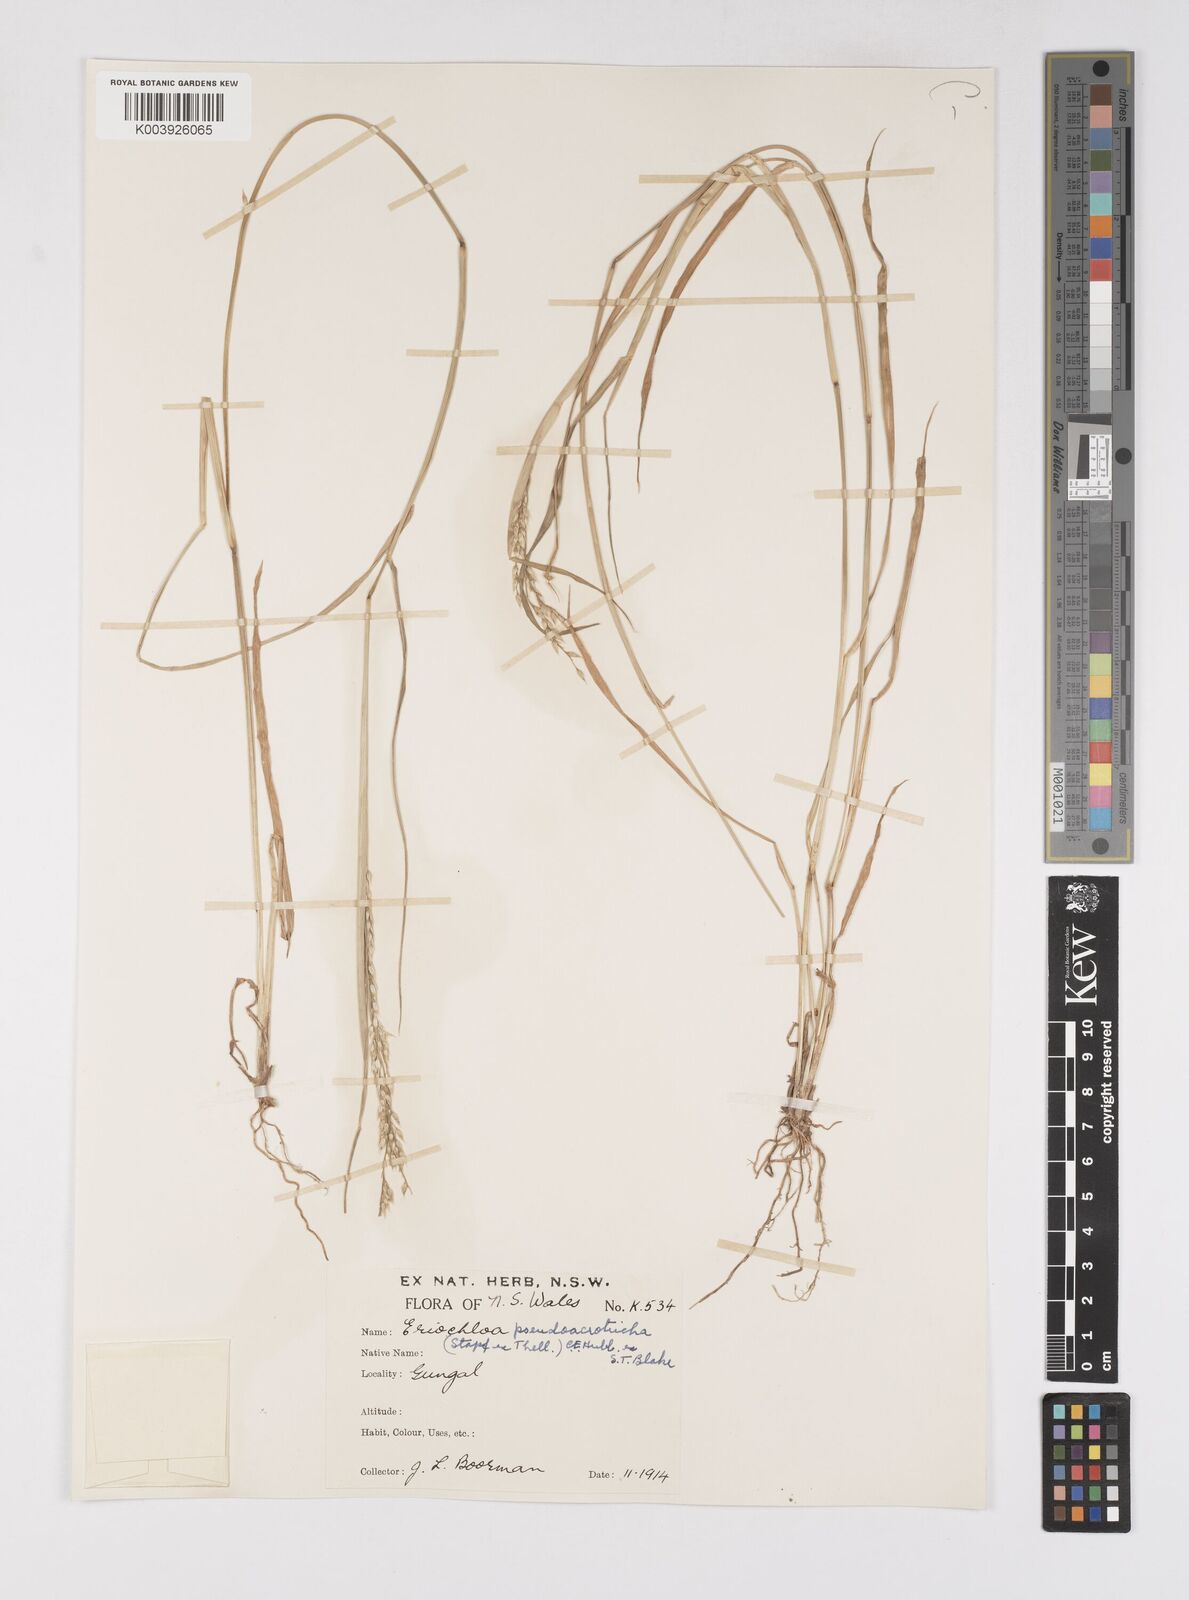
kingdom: Plantae
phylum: Tracheophyta
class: Liliopsida
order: Poales
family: Poaceae
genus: Eriochloa
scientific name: Eriochloa pseudoacrotricha
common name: Perennial cup-grass
